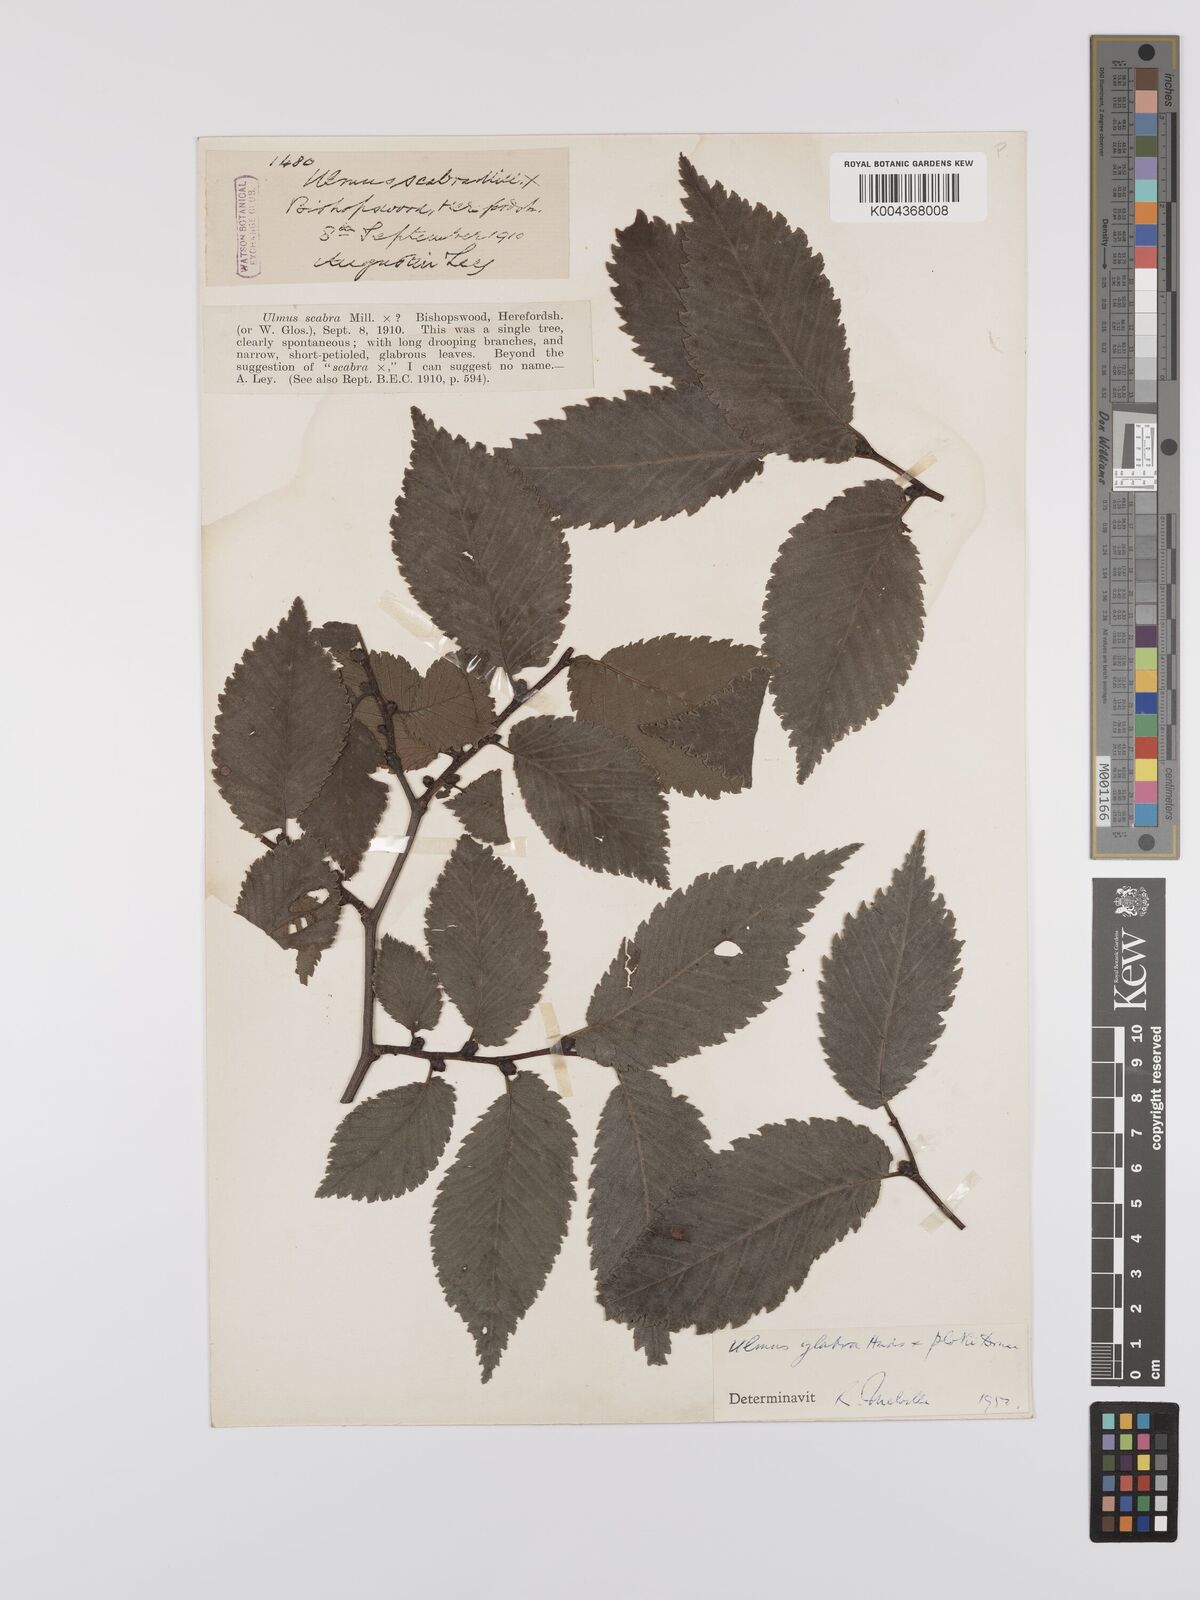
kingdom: Plantae
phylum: Tracheophyta
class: Magnoliopsida
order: Rosales
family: Ulmaceae
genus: Ulmus
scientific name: Ulmus
